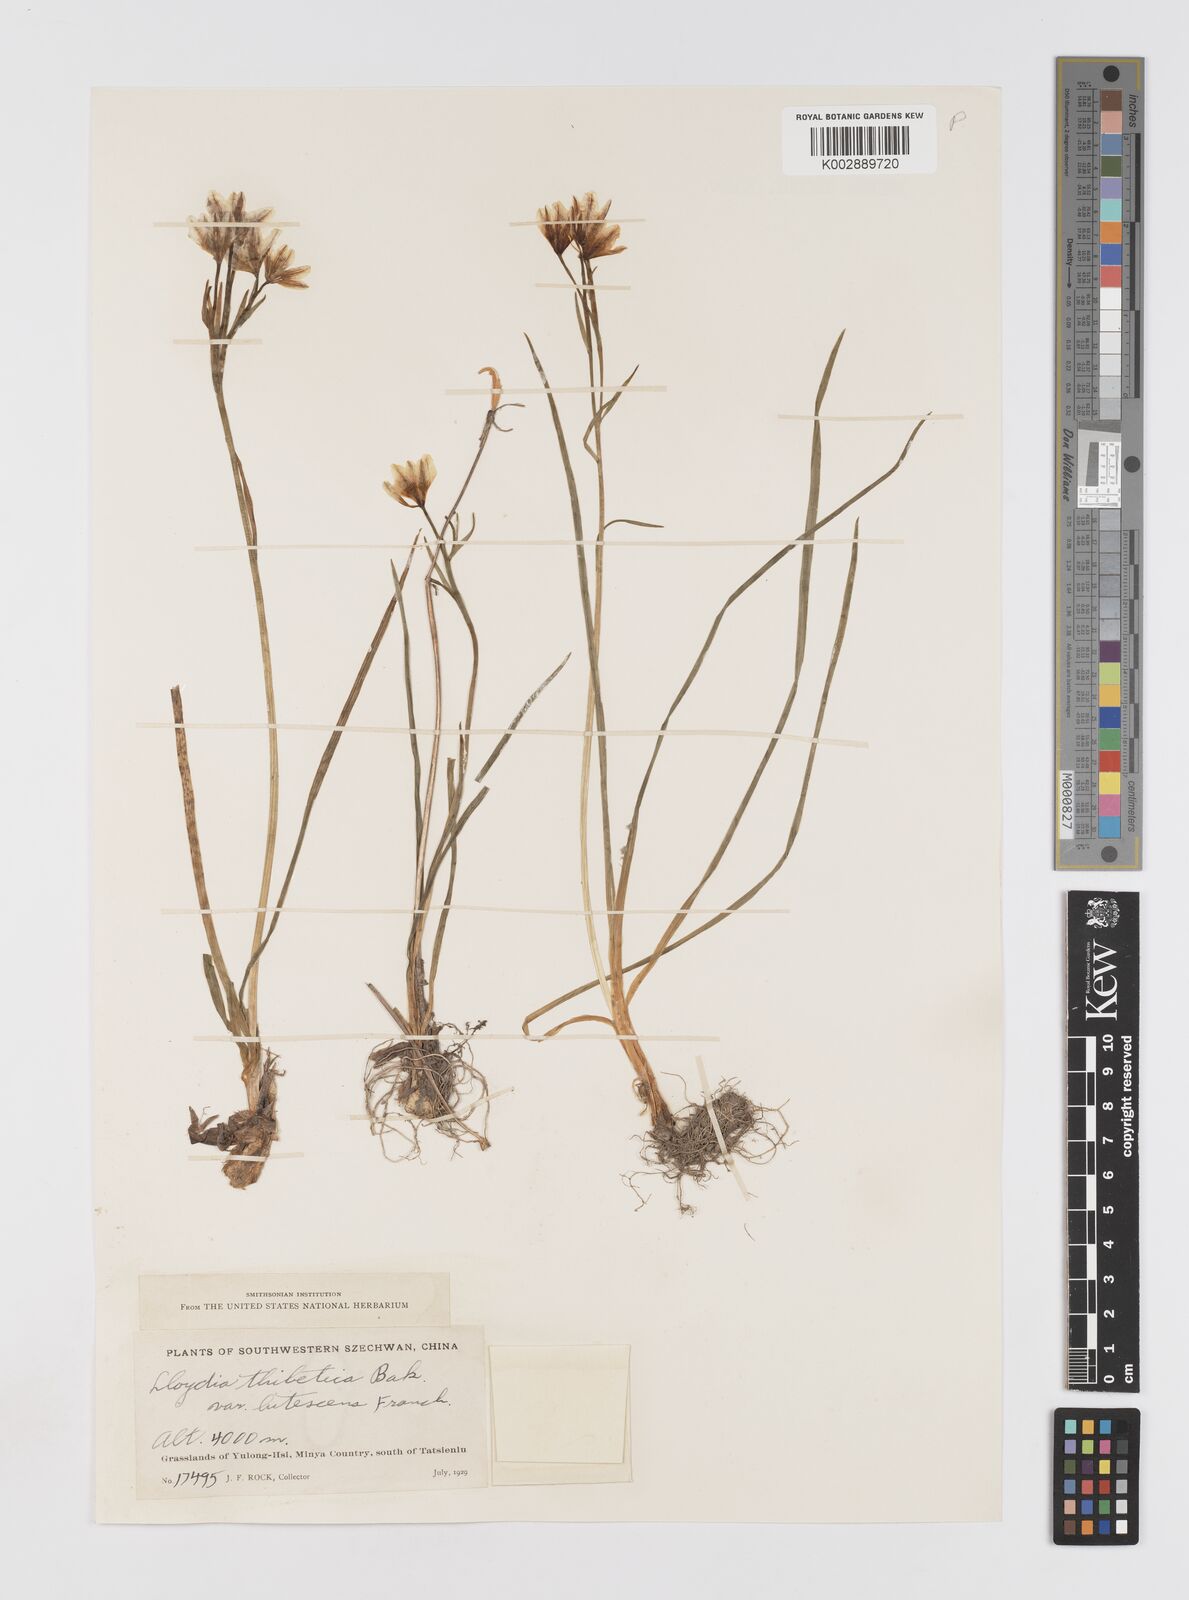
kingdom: Plantae
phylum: Tracheophyta
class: Liliopsida
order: Liliales
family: Liliaceae
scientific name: Liliaceae
